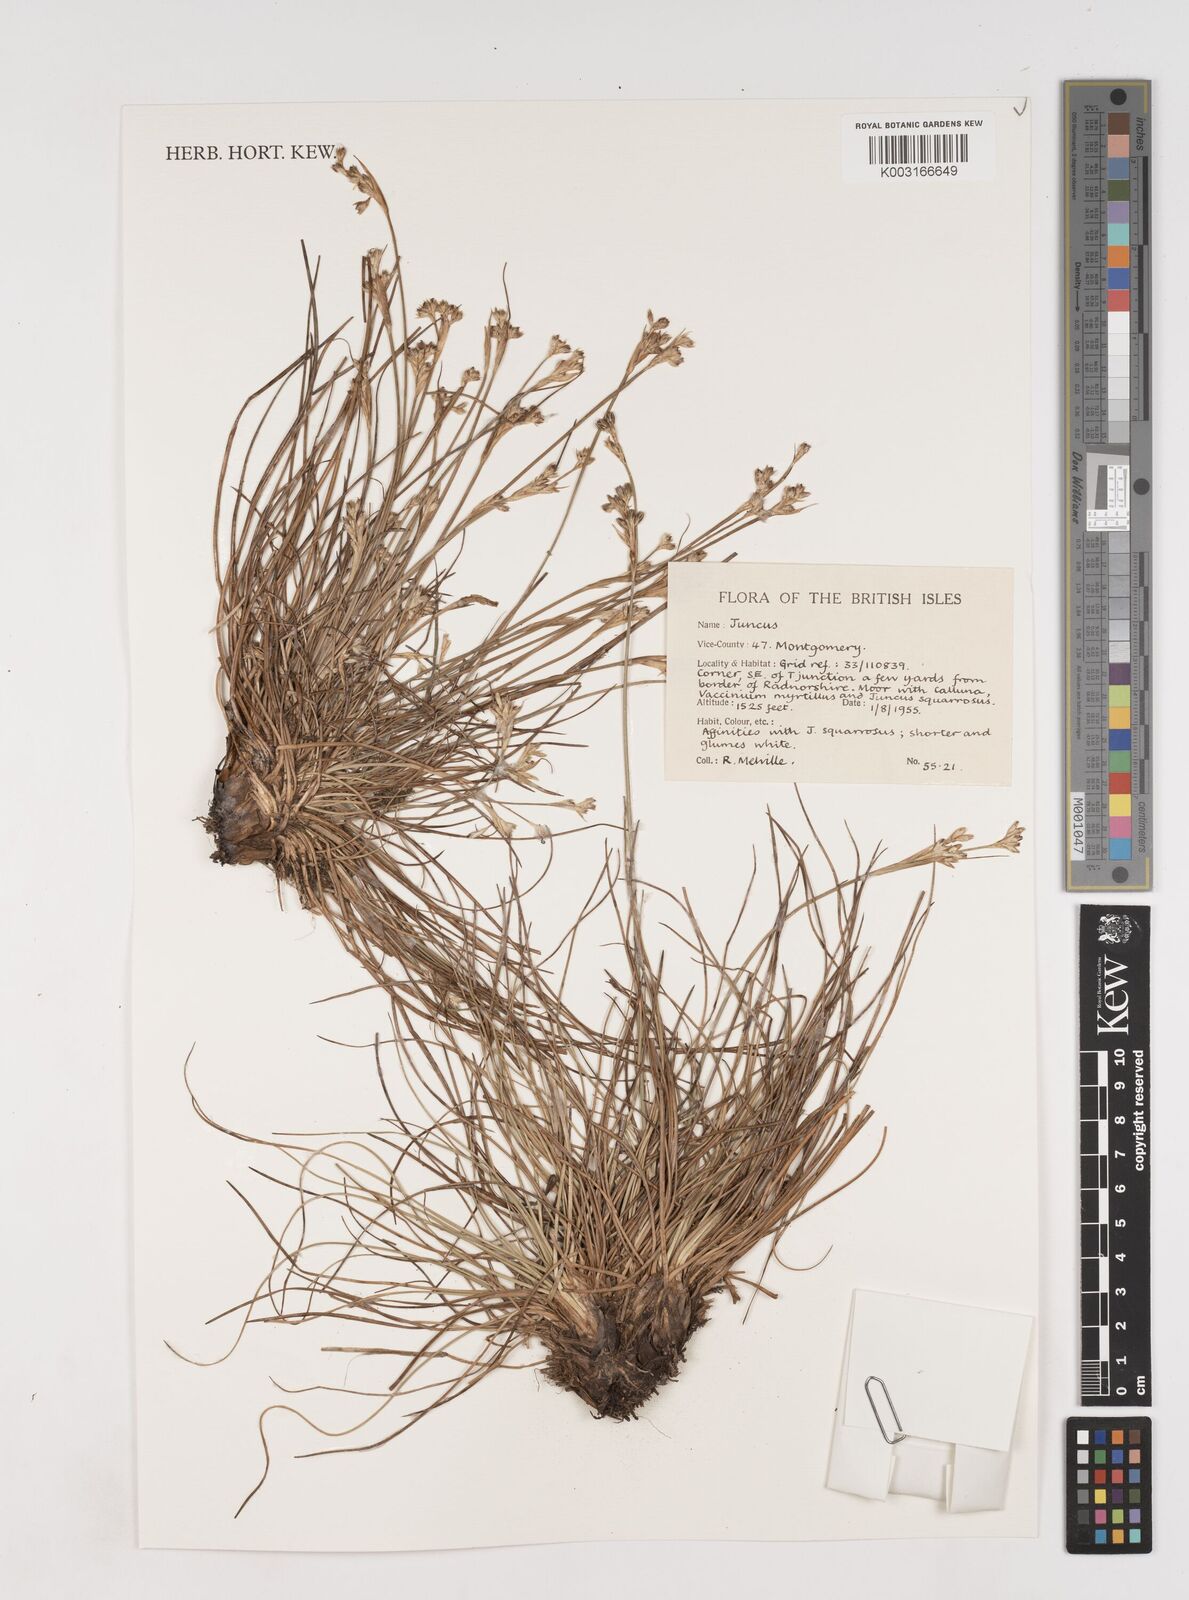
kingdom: Plantae
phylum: Tracheophyta
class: Liliopsida
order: Poales
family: Juncaceae
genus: Juncus
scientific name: Juncus squarrosus
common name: Heath rush
